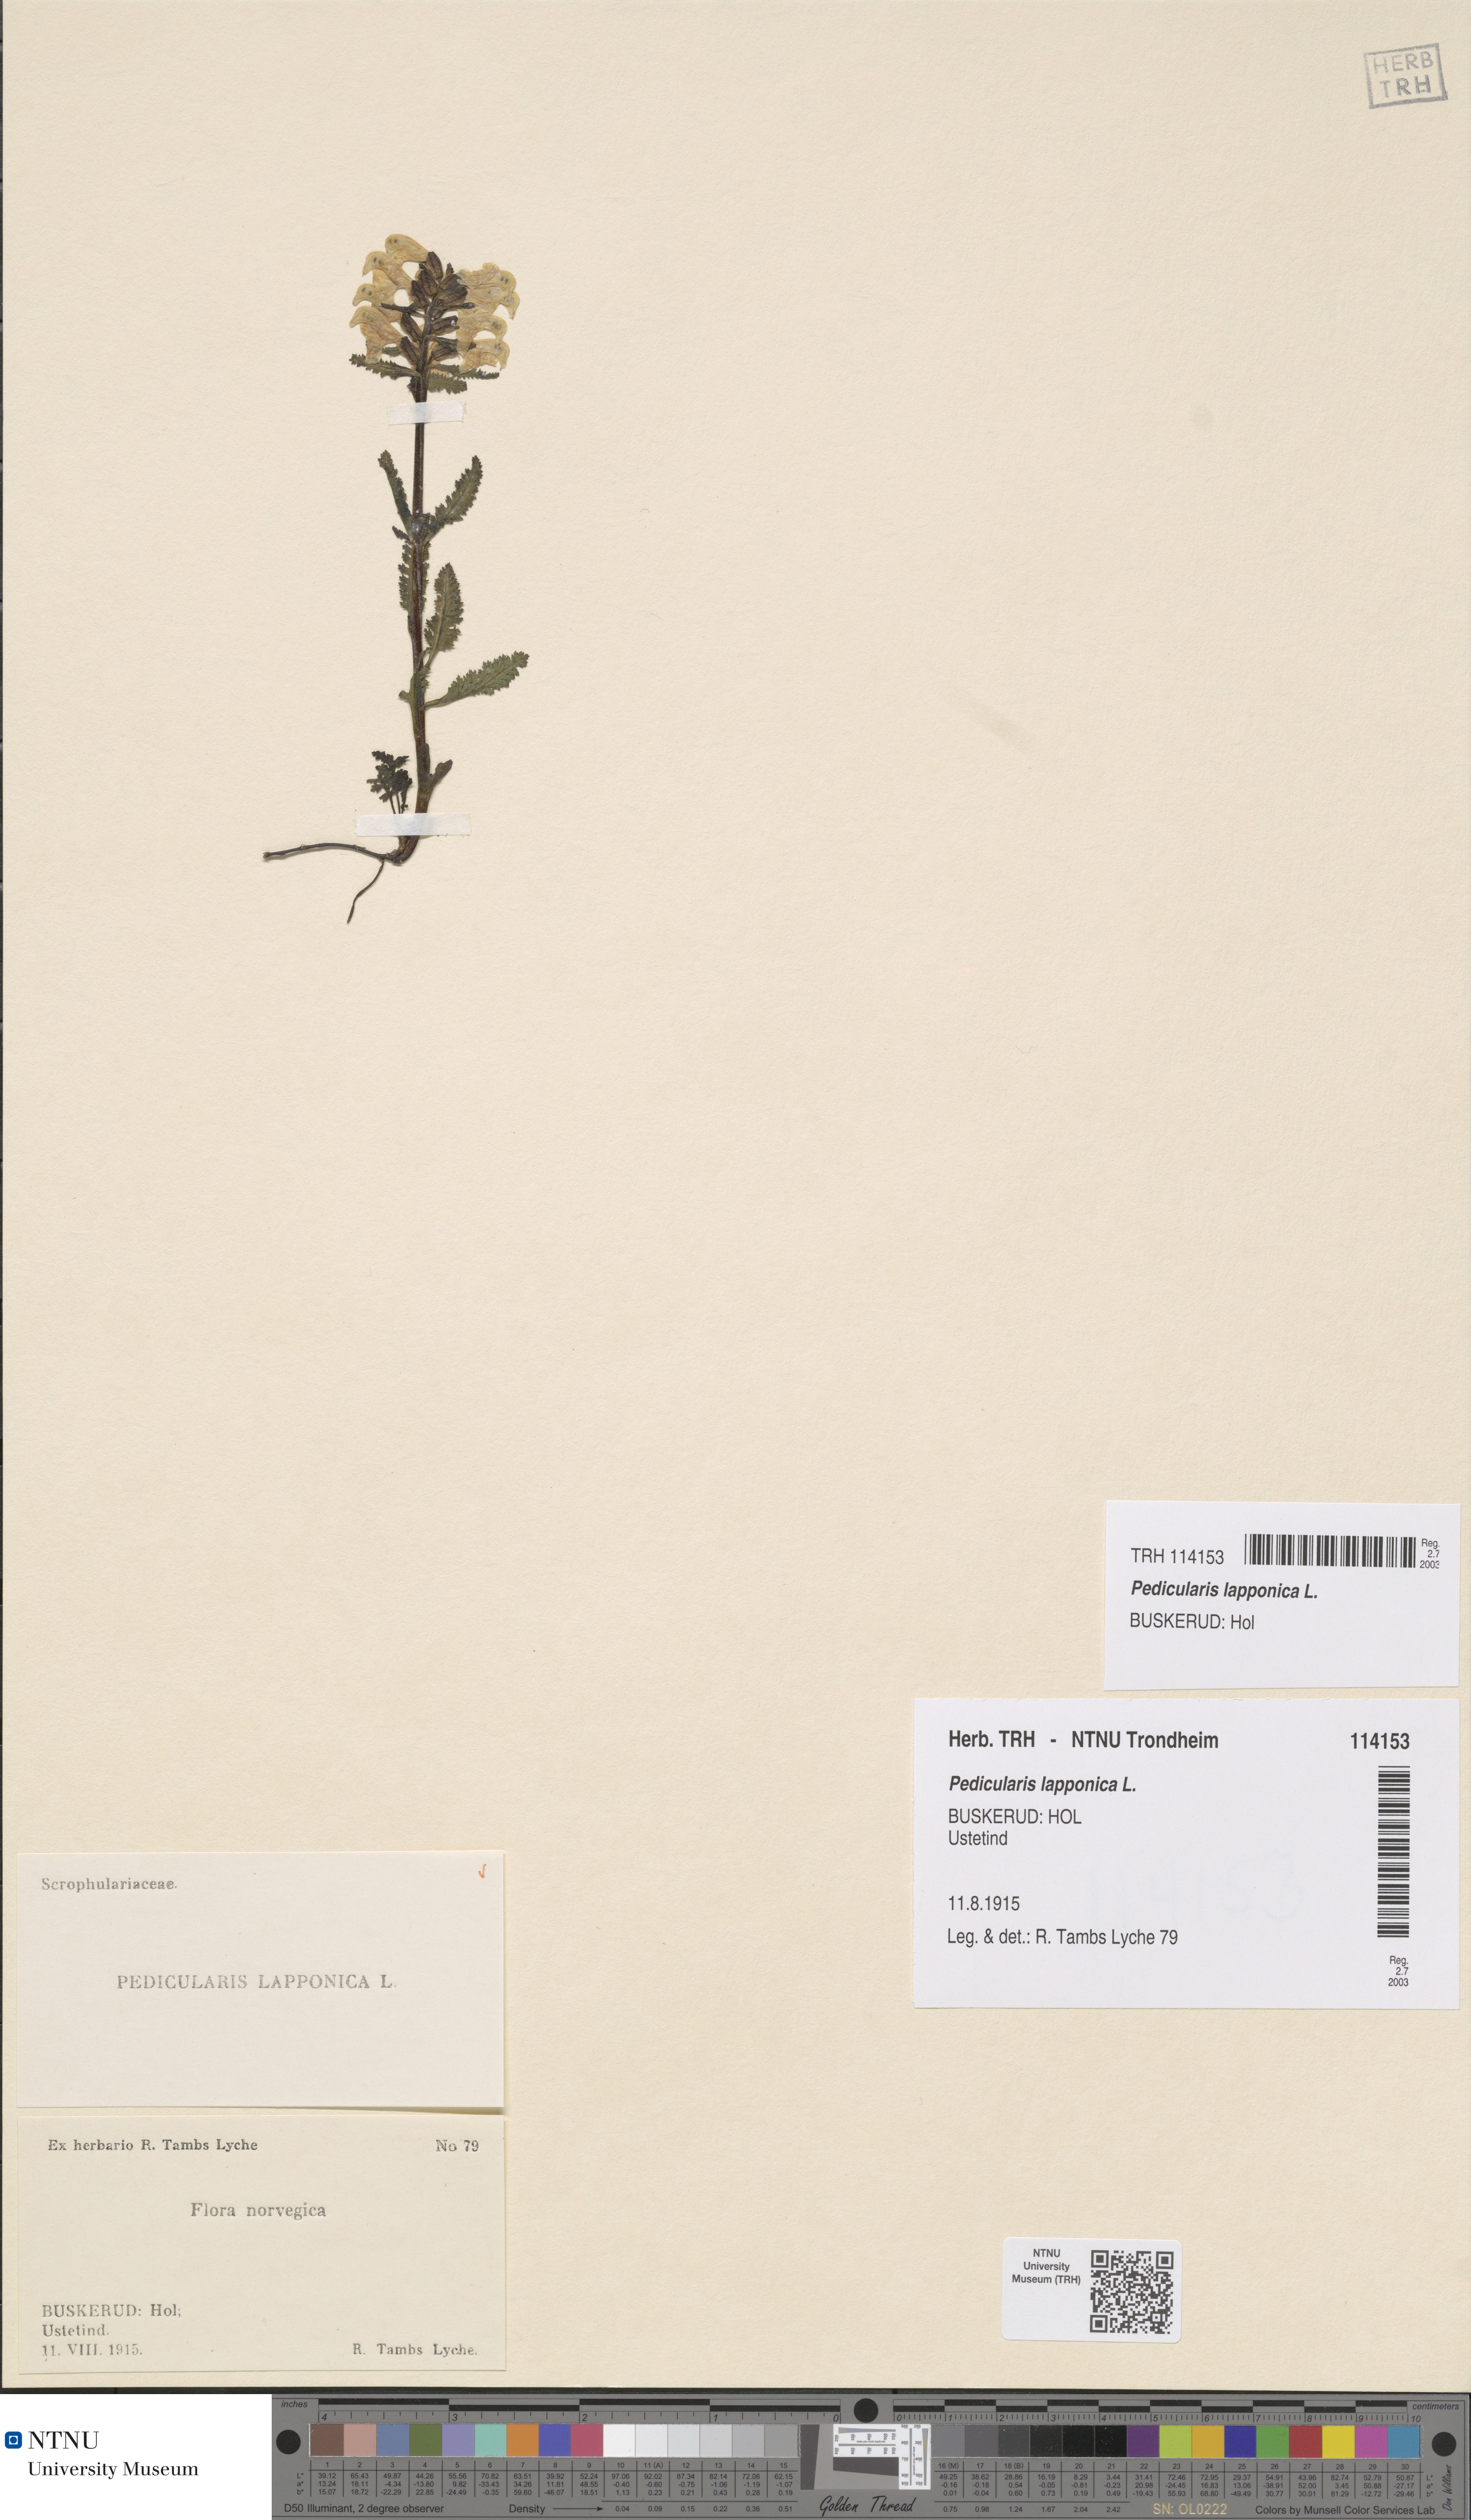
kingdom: Plantae
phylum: Tracheophyta
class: Magnoliopsida
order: Lamiales
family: Orobanchaceae
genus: Pedicularis
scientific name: Pedicularis lapponica
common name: Lapland lousewort
